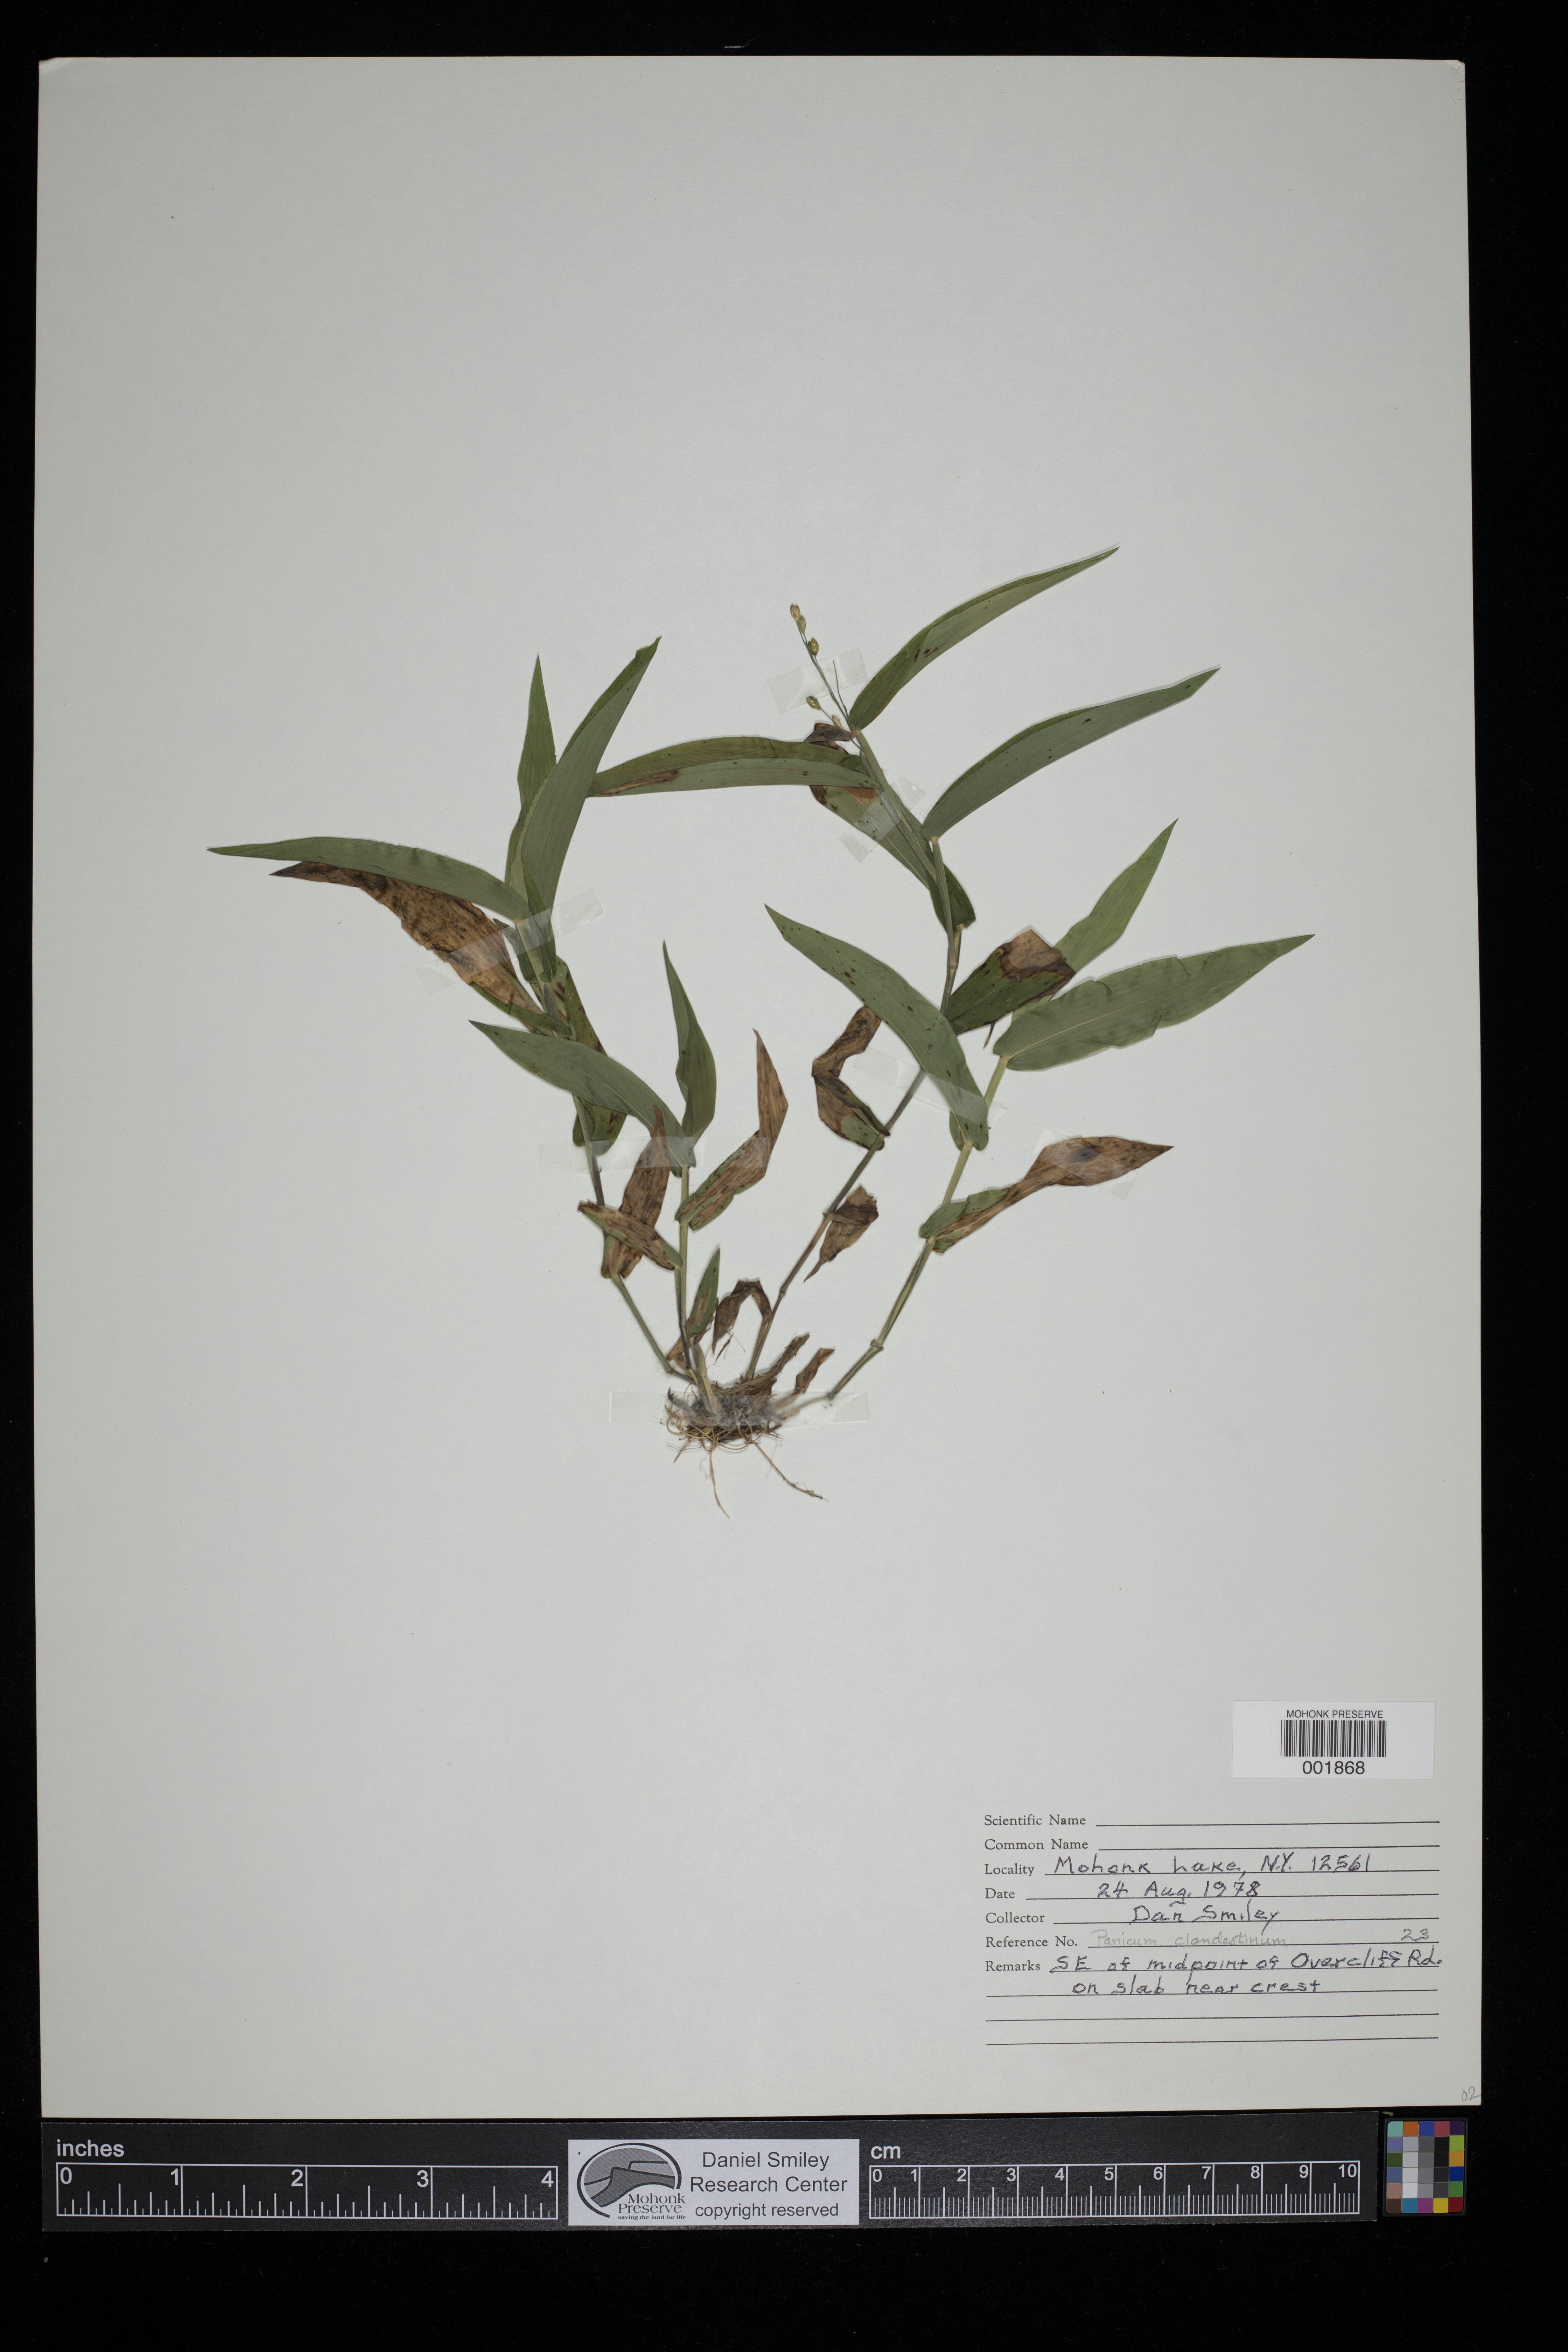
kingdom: Plantae
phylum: Tracheophyta
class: Liliopsida
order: Poales
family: Poaceae
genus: Dichanthelium
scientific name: Dichanthelium clandestinum
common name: Deer-tongue grass
